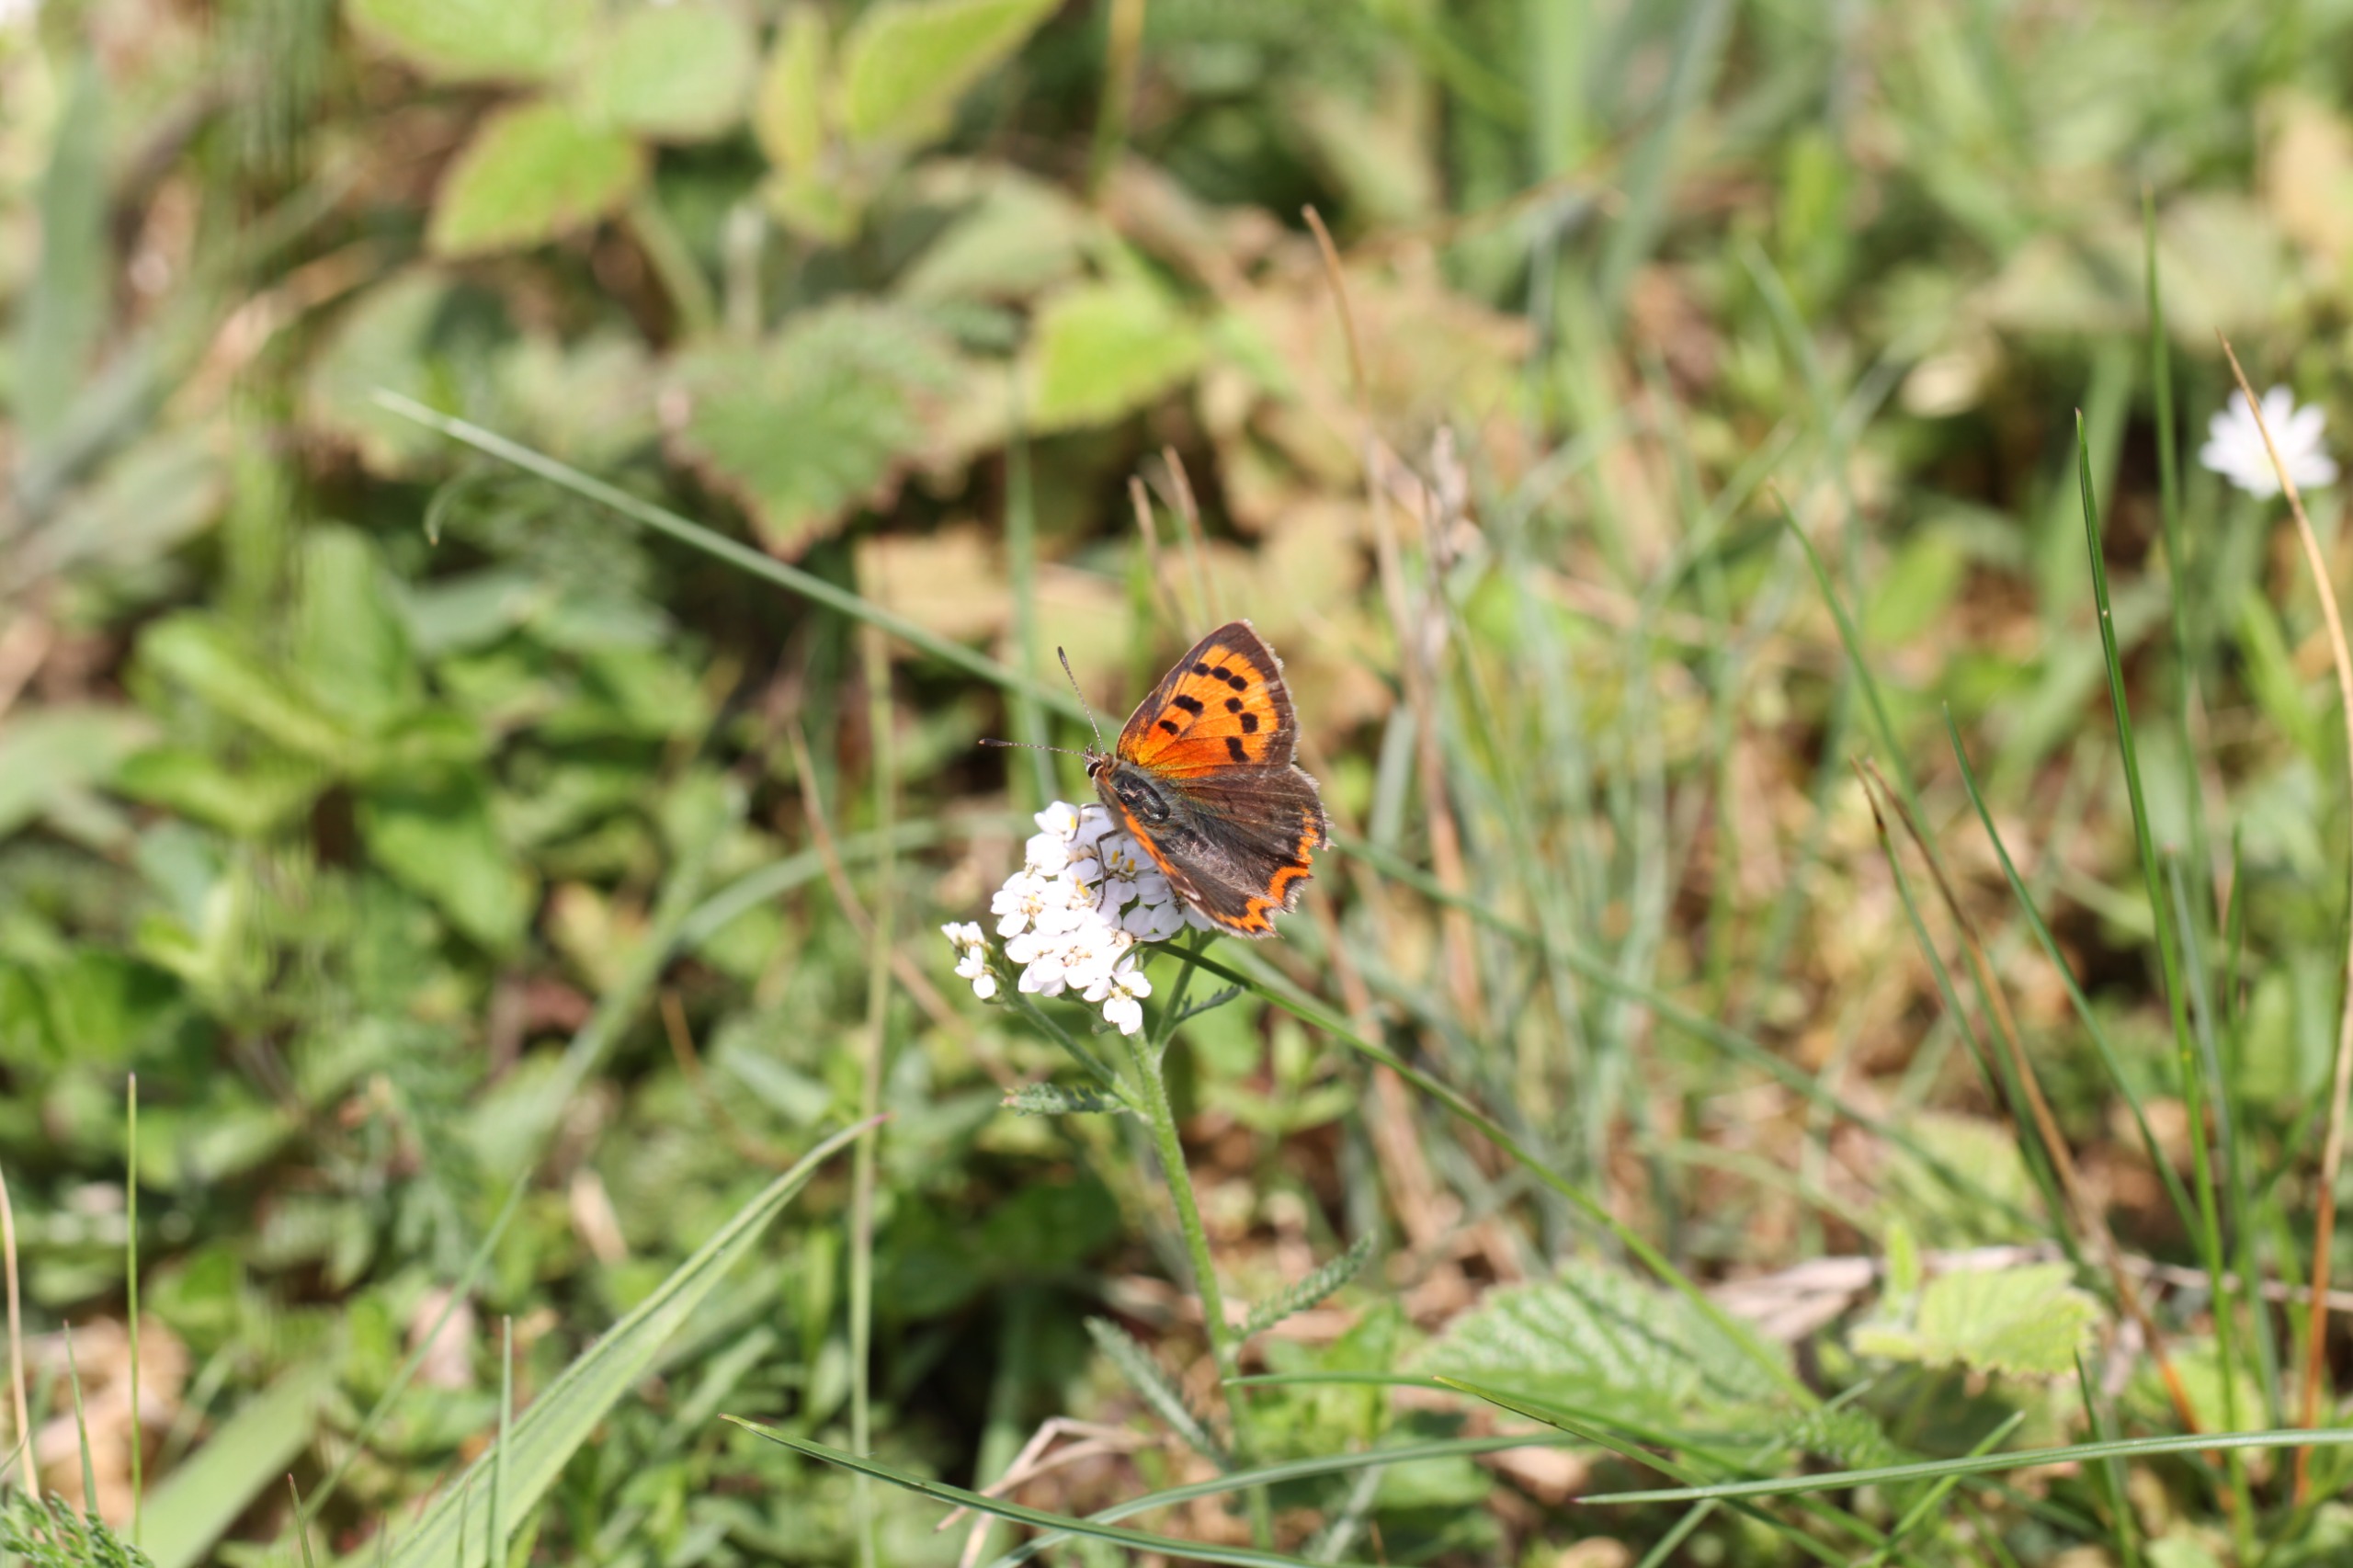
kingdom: Animalia
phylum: Arthropoda
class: Insecta
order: Lepidoptera
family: Lycaenidae
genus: Lycaena
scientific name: Lycaena phlaeas
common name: Lille ildfugl
